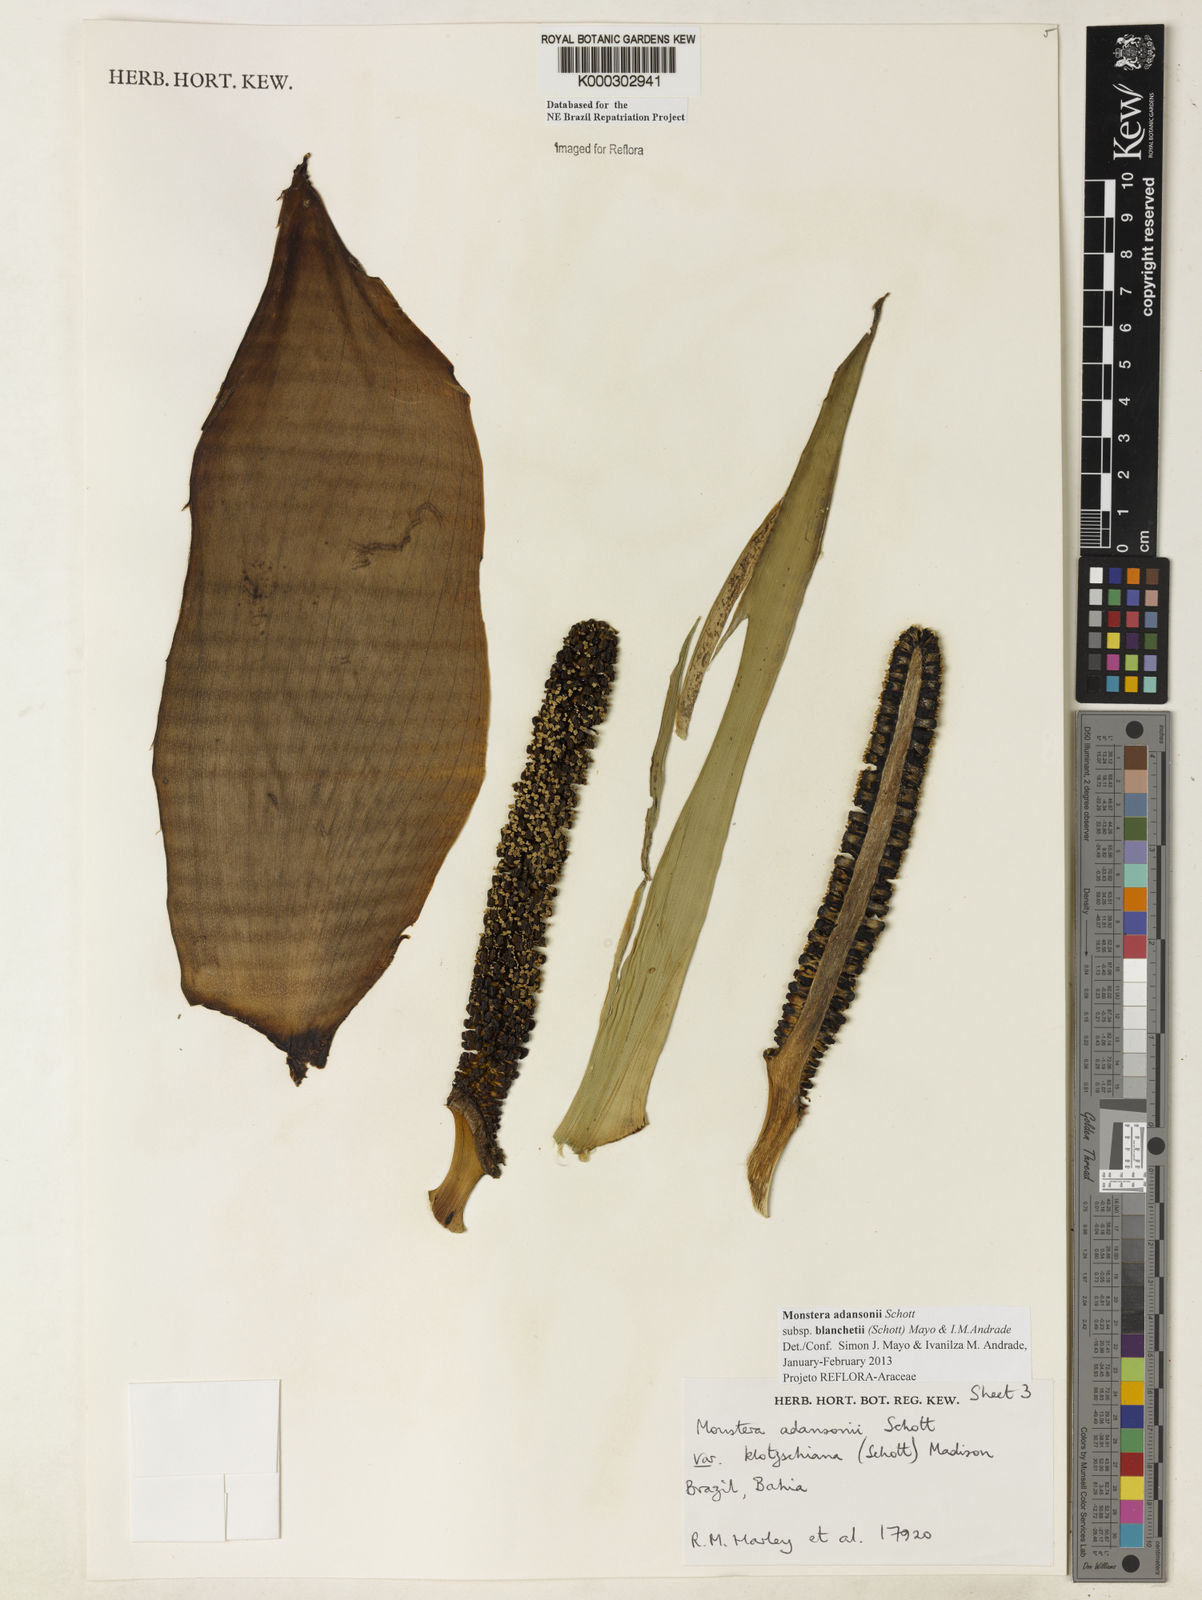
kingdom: Plantae
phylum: Tracheophyta
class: Liliopsida
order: Alismatales
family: Araceae
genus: Monstera
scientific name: Monstera adansonii
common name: Tarovine
